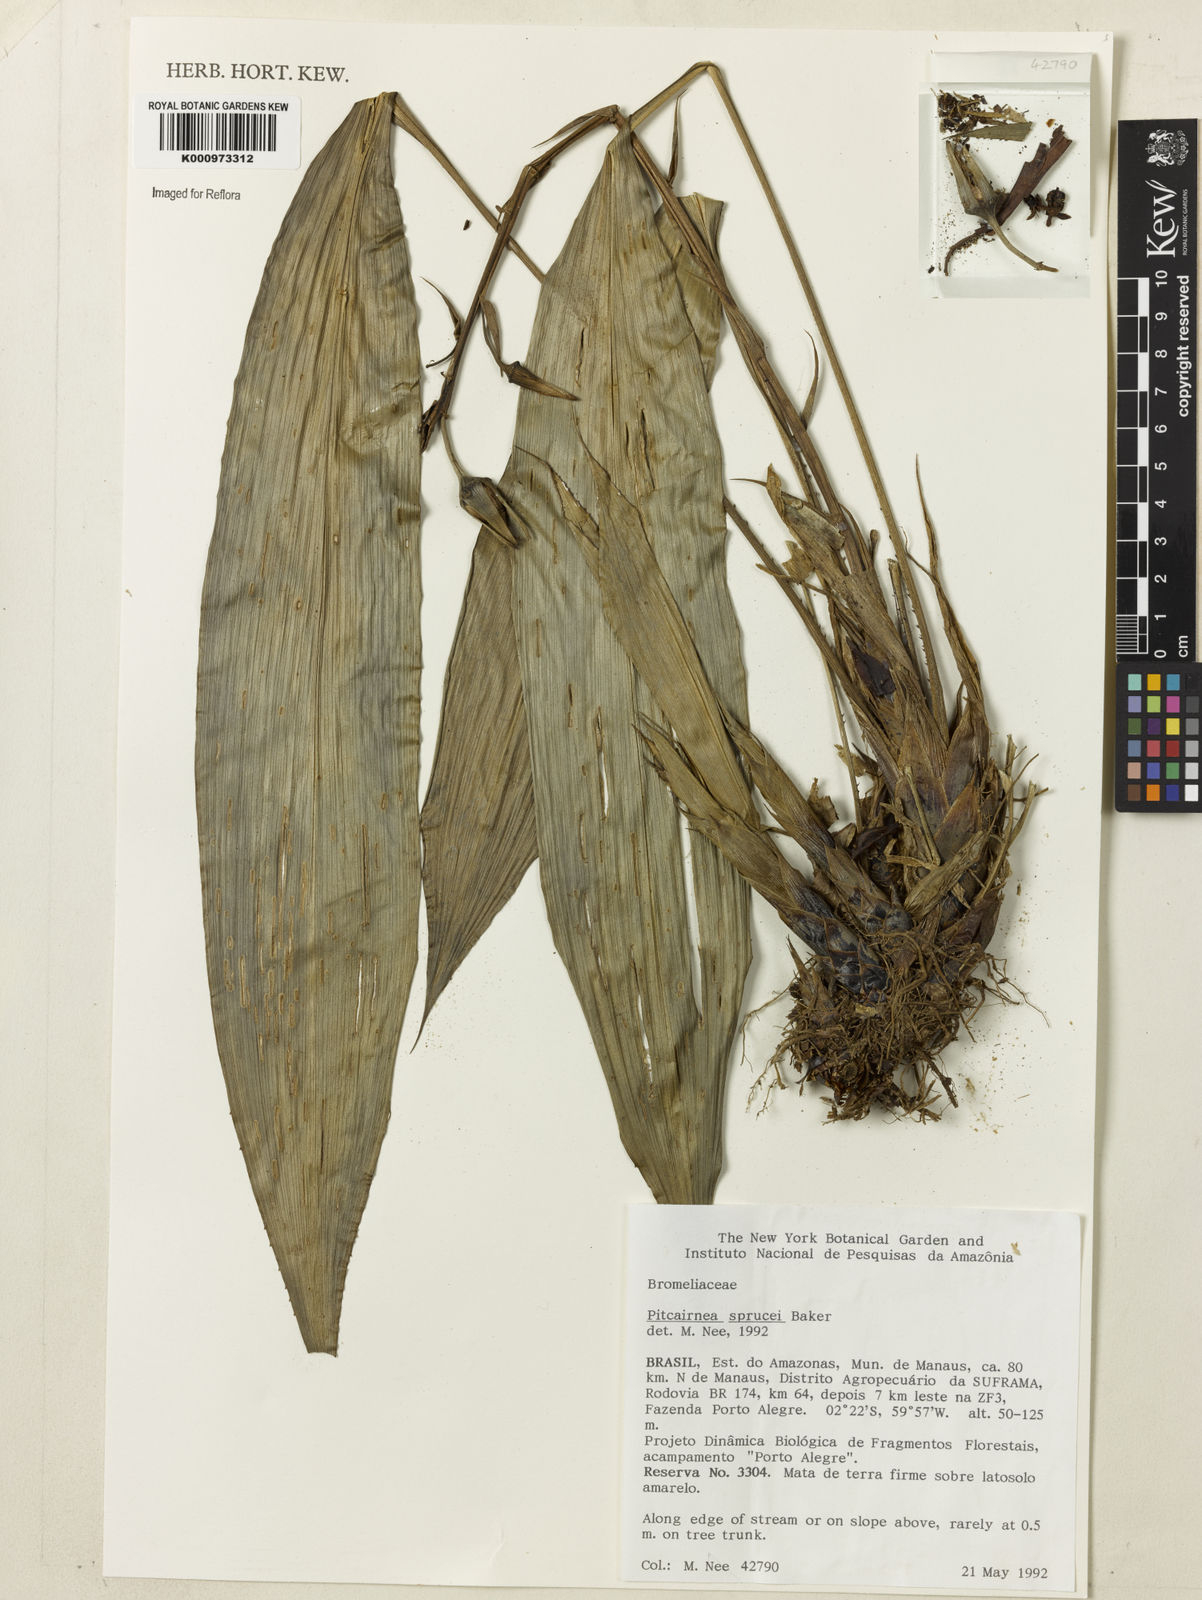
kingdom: Plantae
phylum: Tracheophyta
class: Liliopsida
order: Poales
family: Bromeliaceae
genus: Pitcairnia
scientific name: Pitcairnia sprucei
